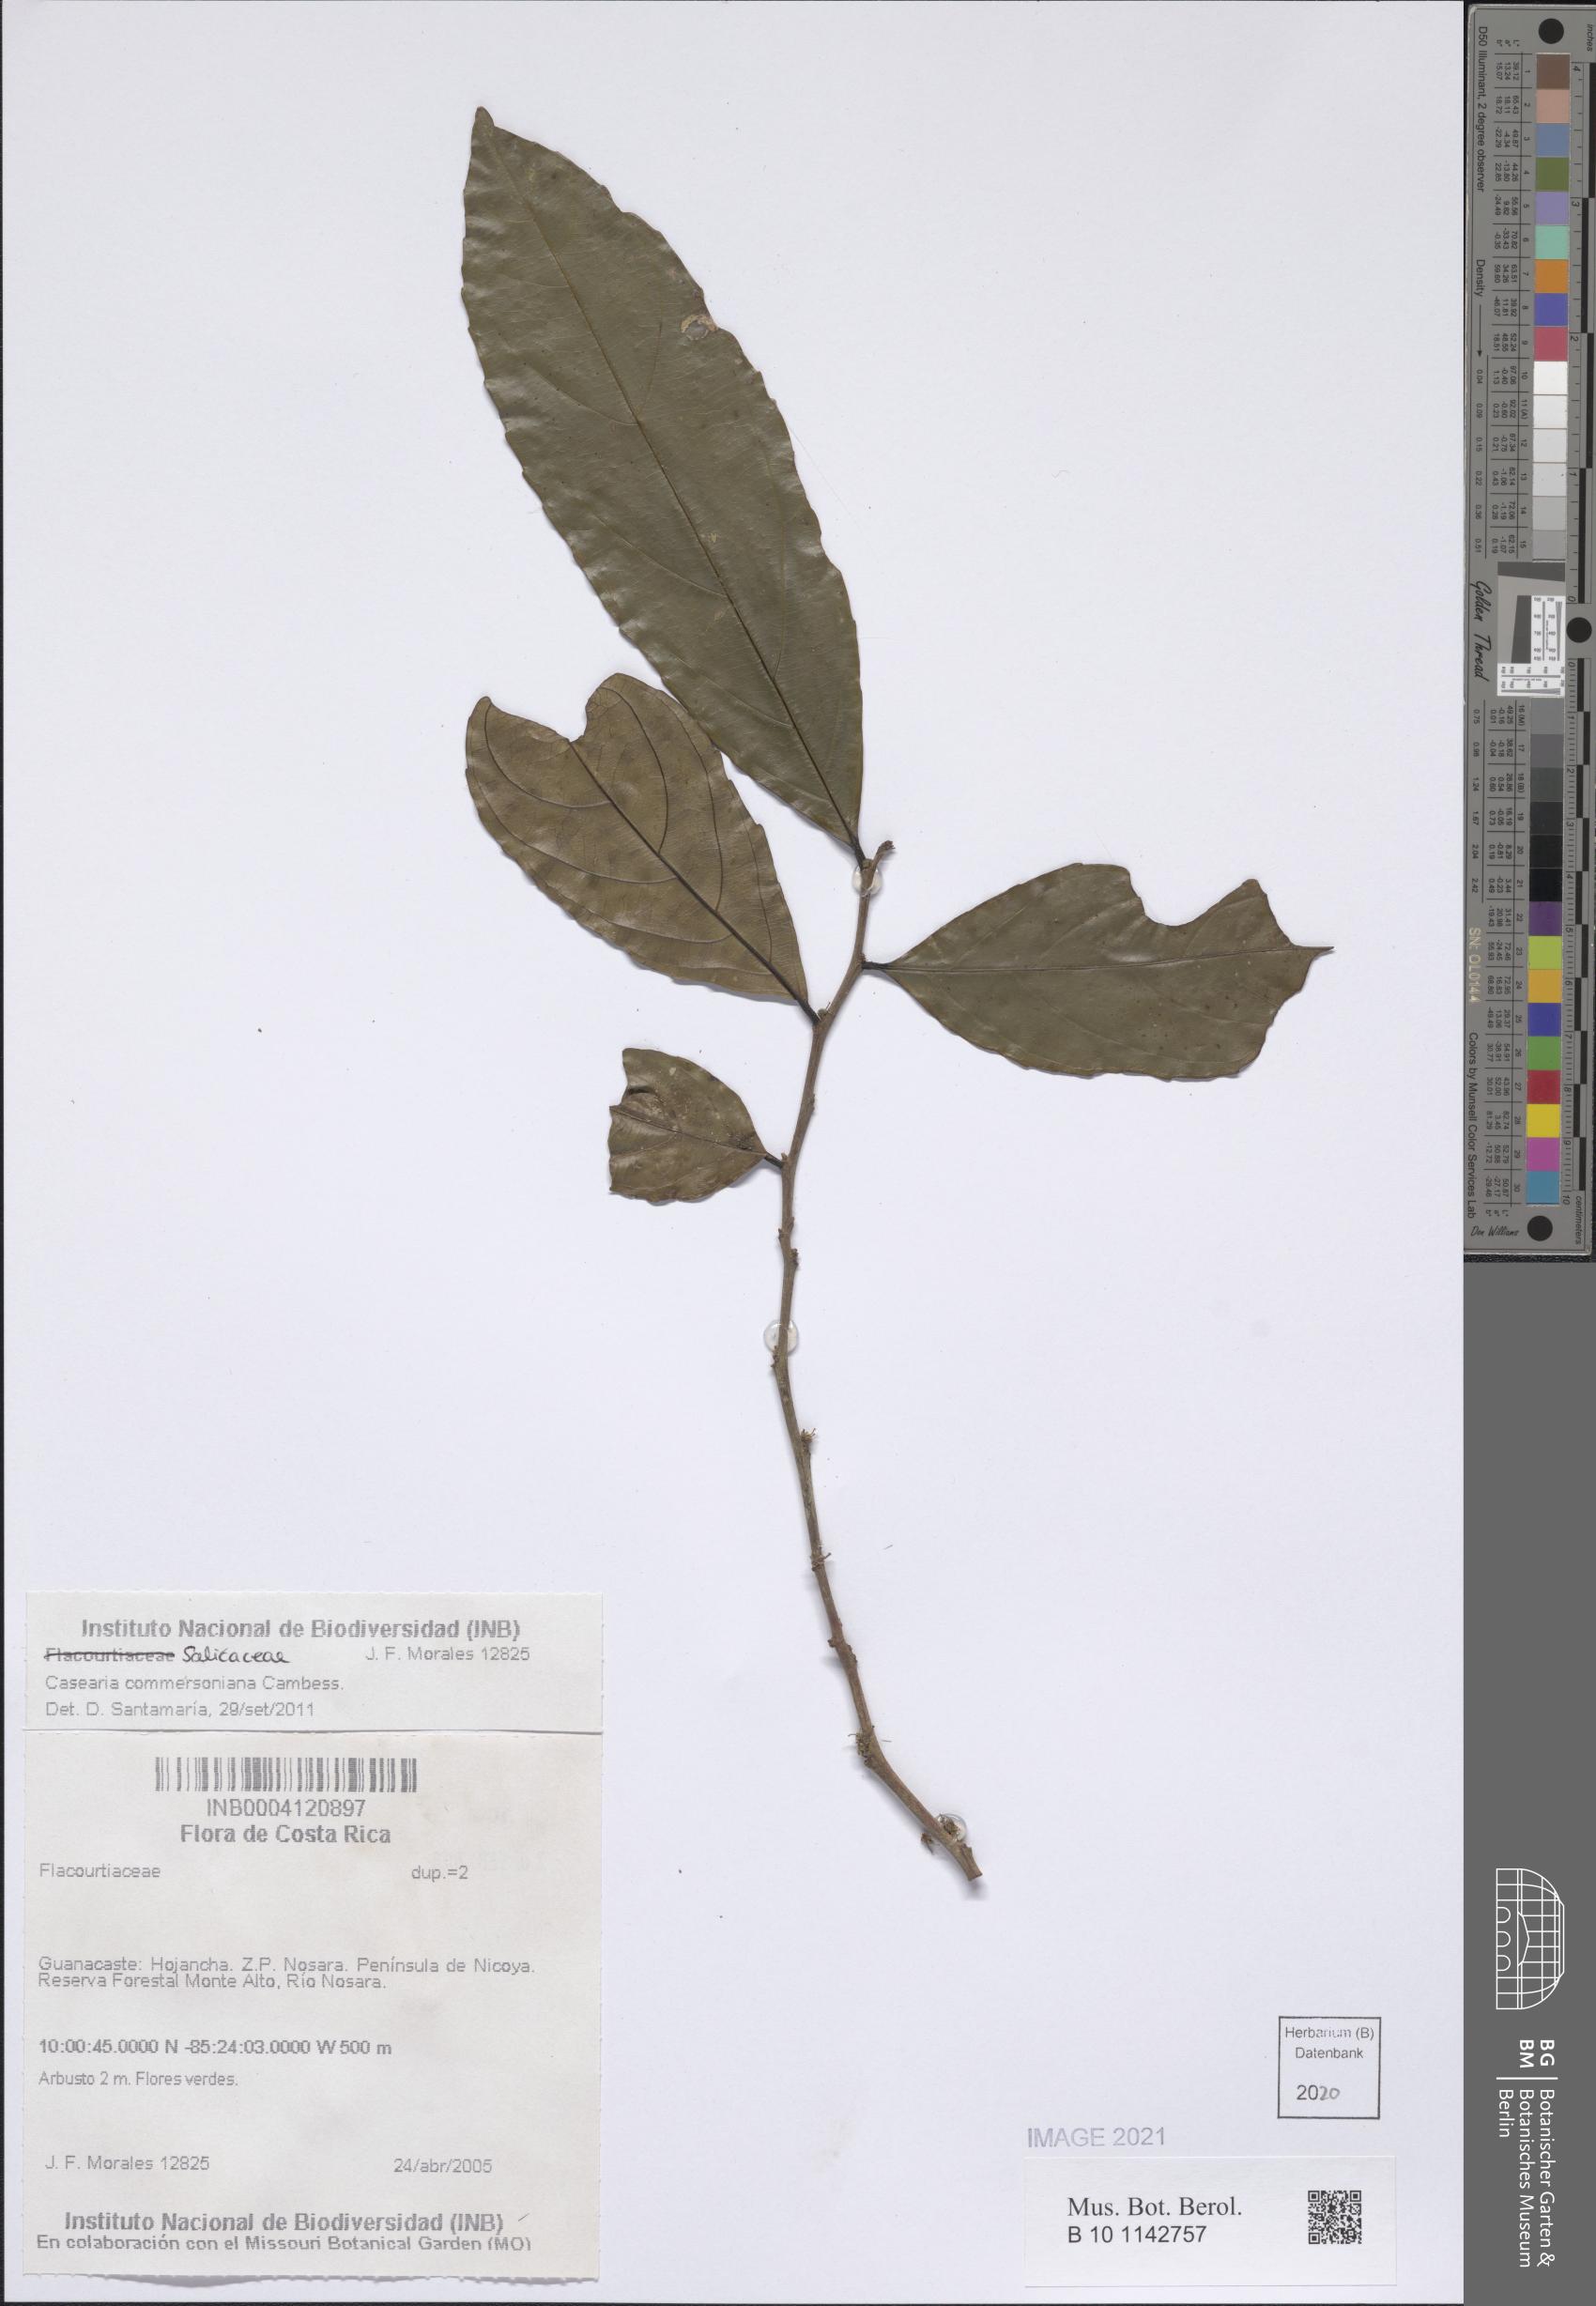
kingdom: Plantae
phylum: Tracheophyta
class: Magnoliopsida
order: Malpighiales
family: Salicaceae
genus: Piparea
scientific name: Piparea dentata
